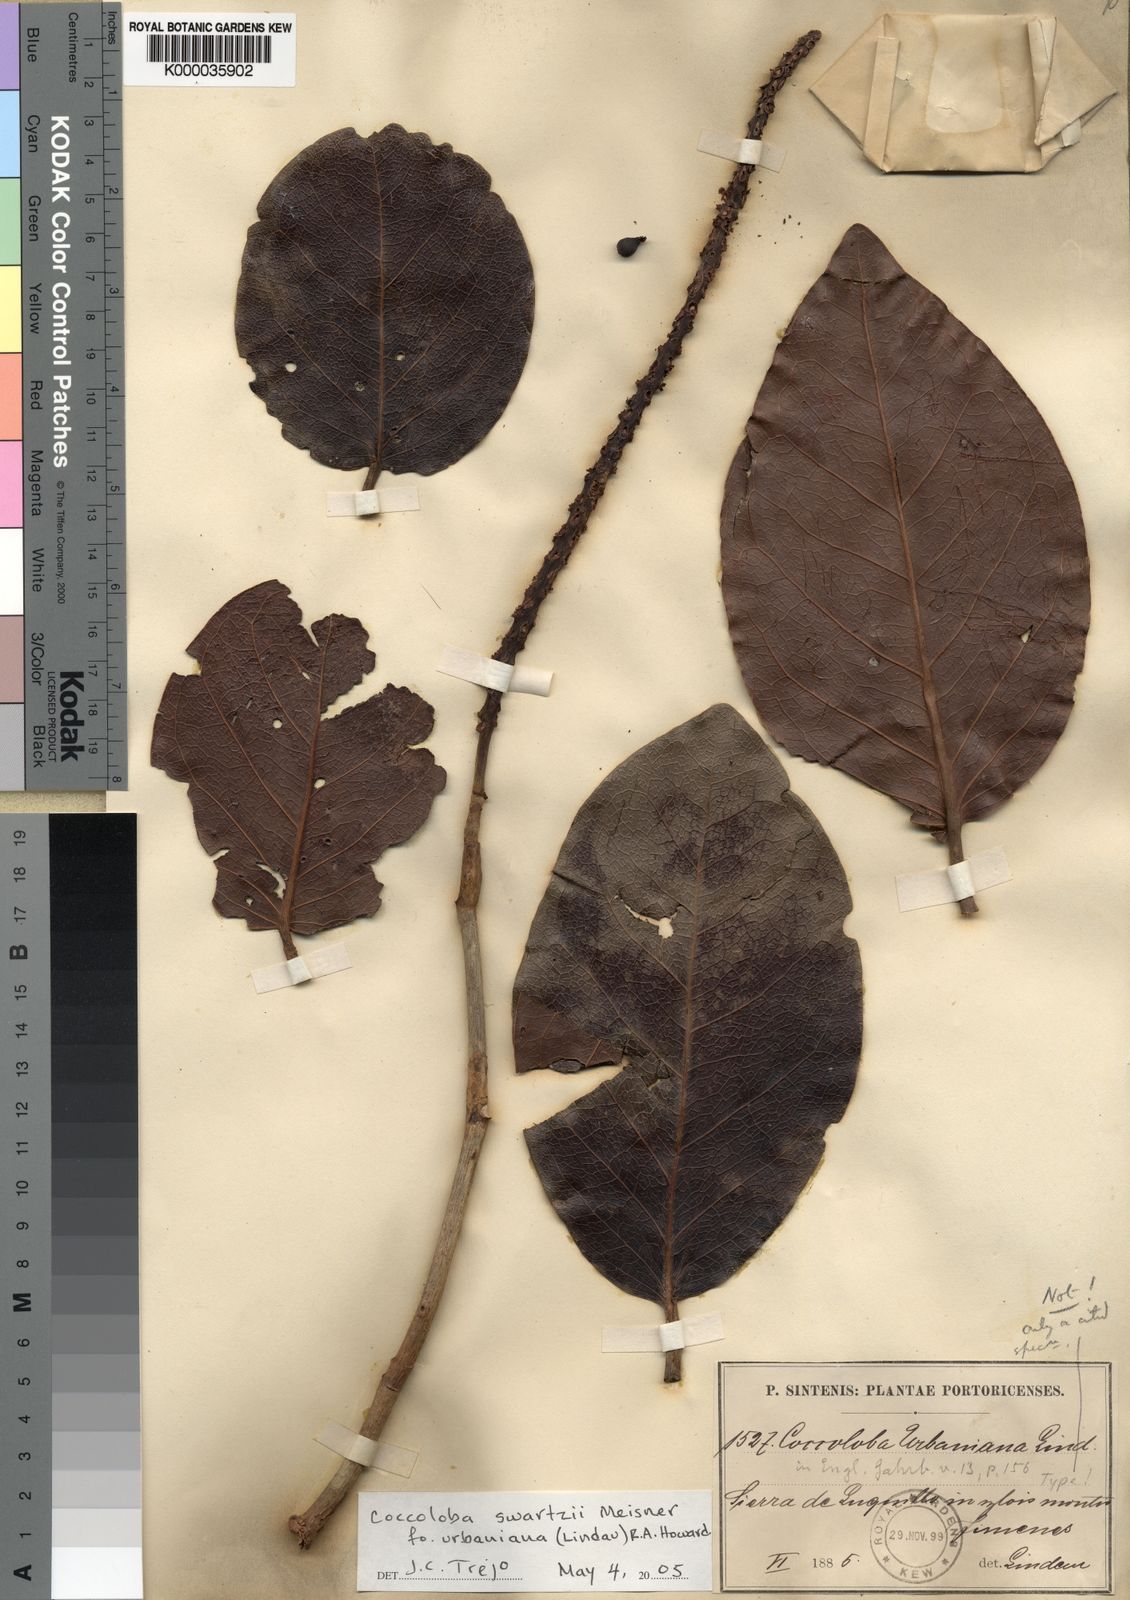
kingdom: Plantae
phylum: Tracheophyta
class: Magnoliopsida
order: Caryophyllales
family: Polygonaceae
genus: Coccoloba
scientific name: Coccoloba swartzii
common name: Red wood
